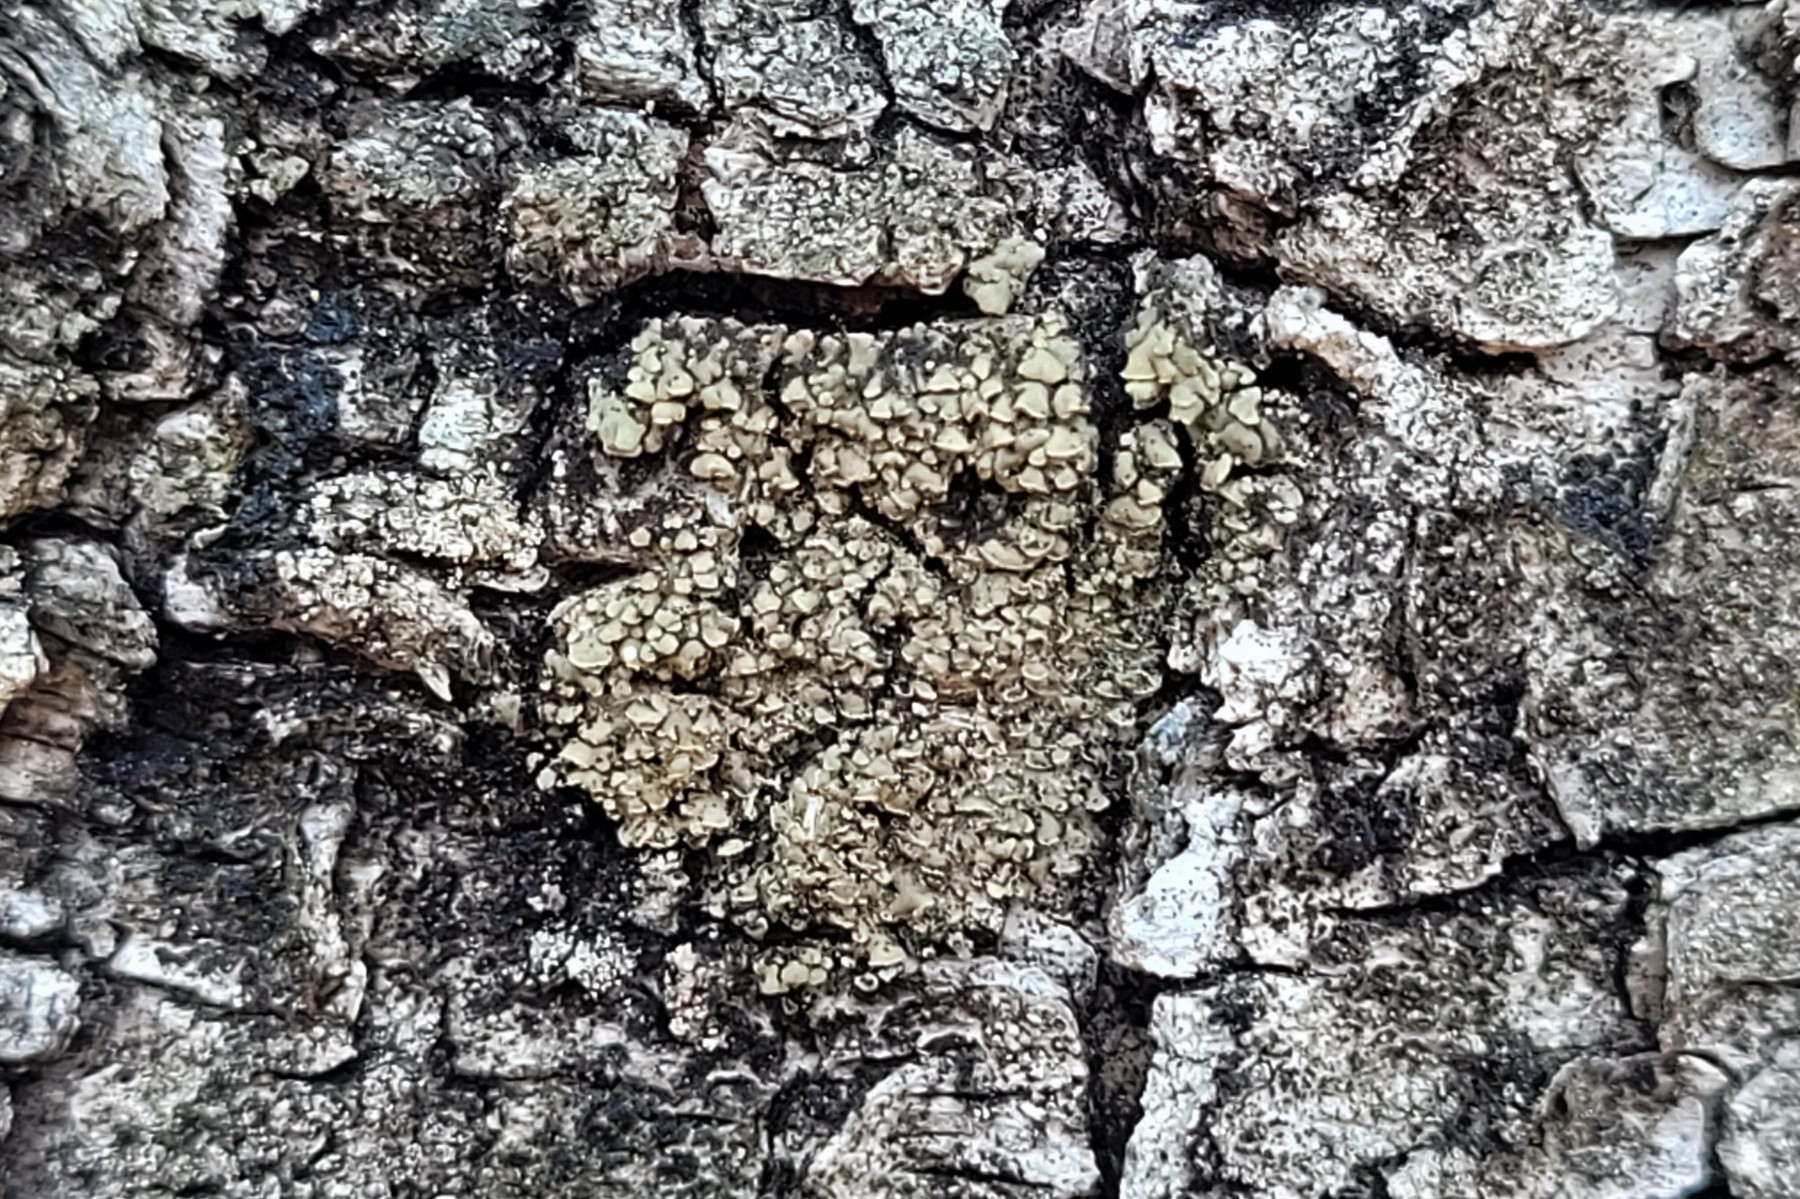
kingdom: Fungi
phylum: Ascomycota
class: Lecanoromycetes
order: Umbilicariales
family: Ophioparmaceae
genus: Hypocenomyce
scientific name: Hypocenomyce scalaris
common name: småskællet muslinglav
